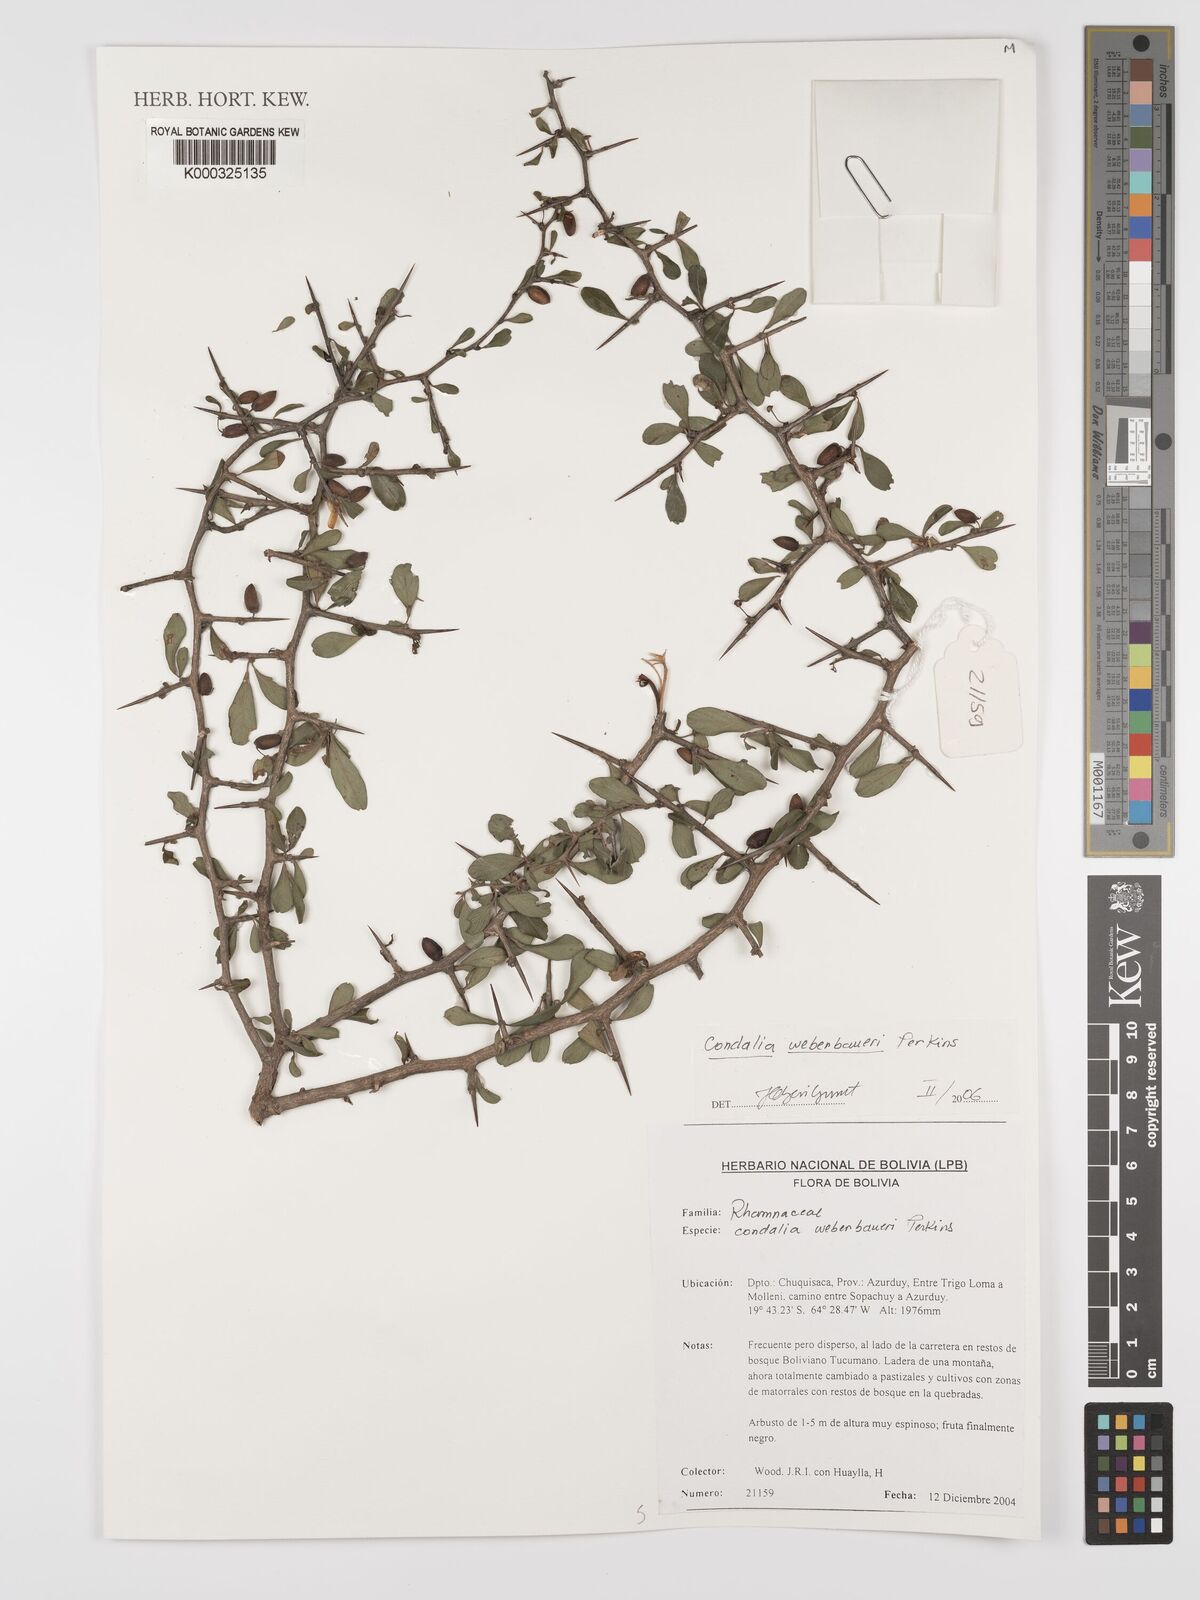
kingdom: Plantae
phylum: Tracheophyta
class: Magnoliopsida
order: Rosales
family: Rhamnaceae
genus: Condalia
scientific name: Condalia weberbaueri
